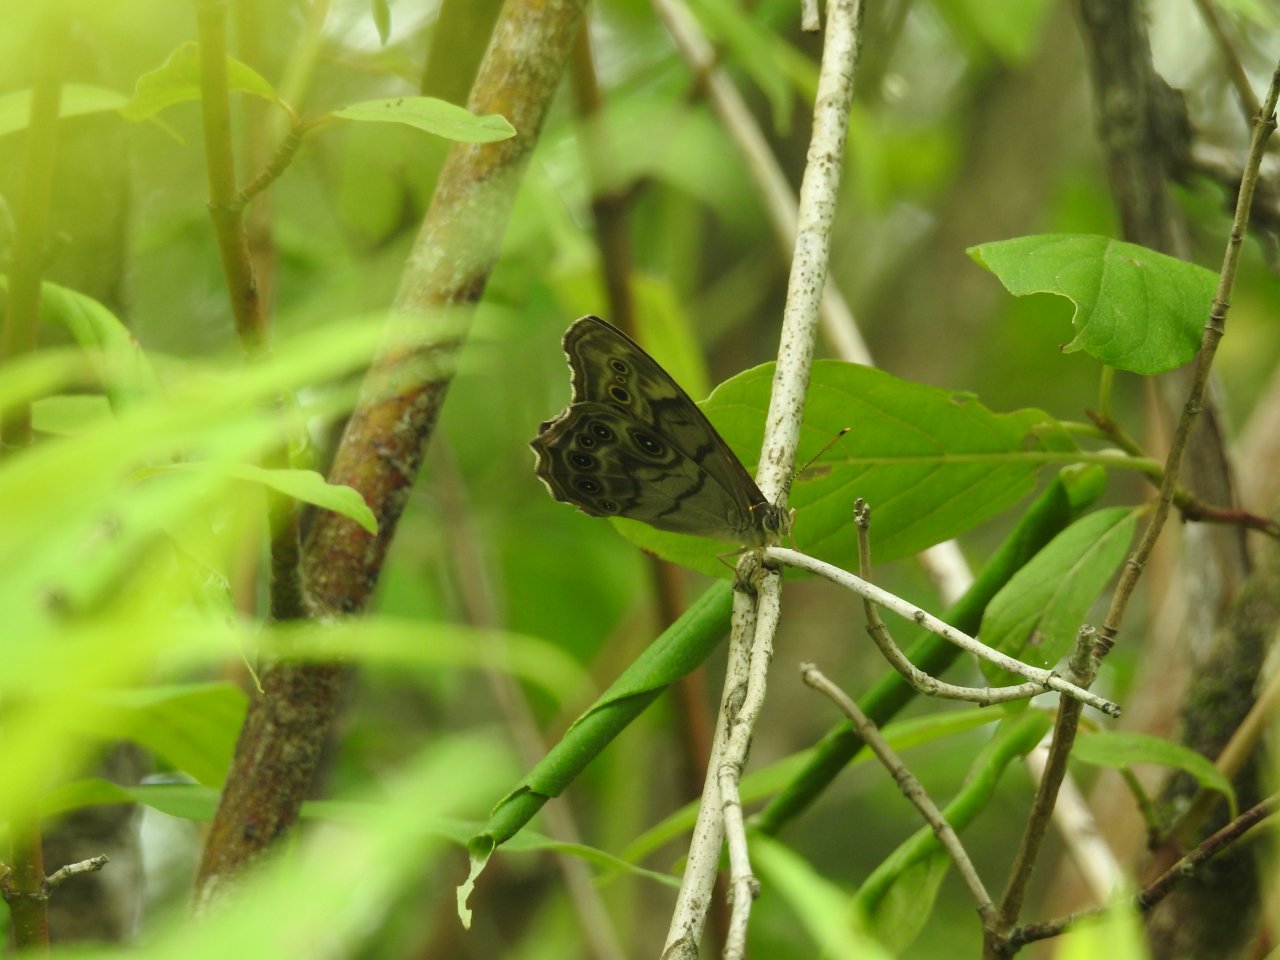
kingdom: Animalia
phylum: Arthropoda
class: Insecta
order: Lepidoptera
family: Nymphalidae
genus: Lethe
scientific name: Lethe anthedon
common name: Northern Pearly-Eye
